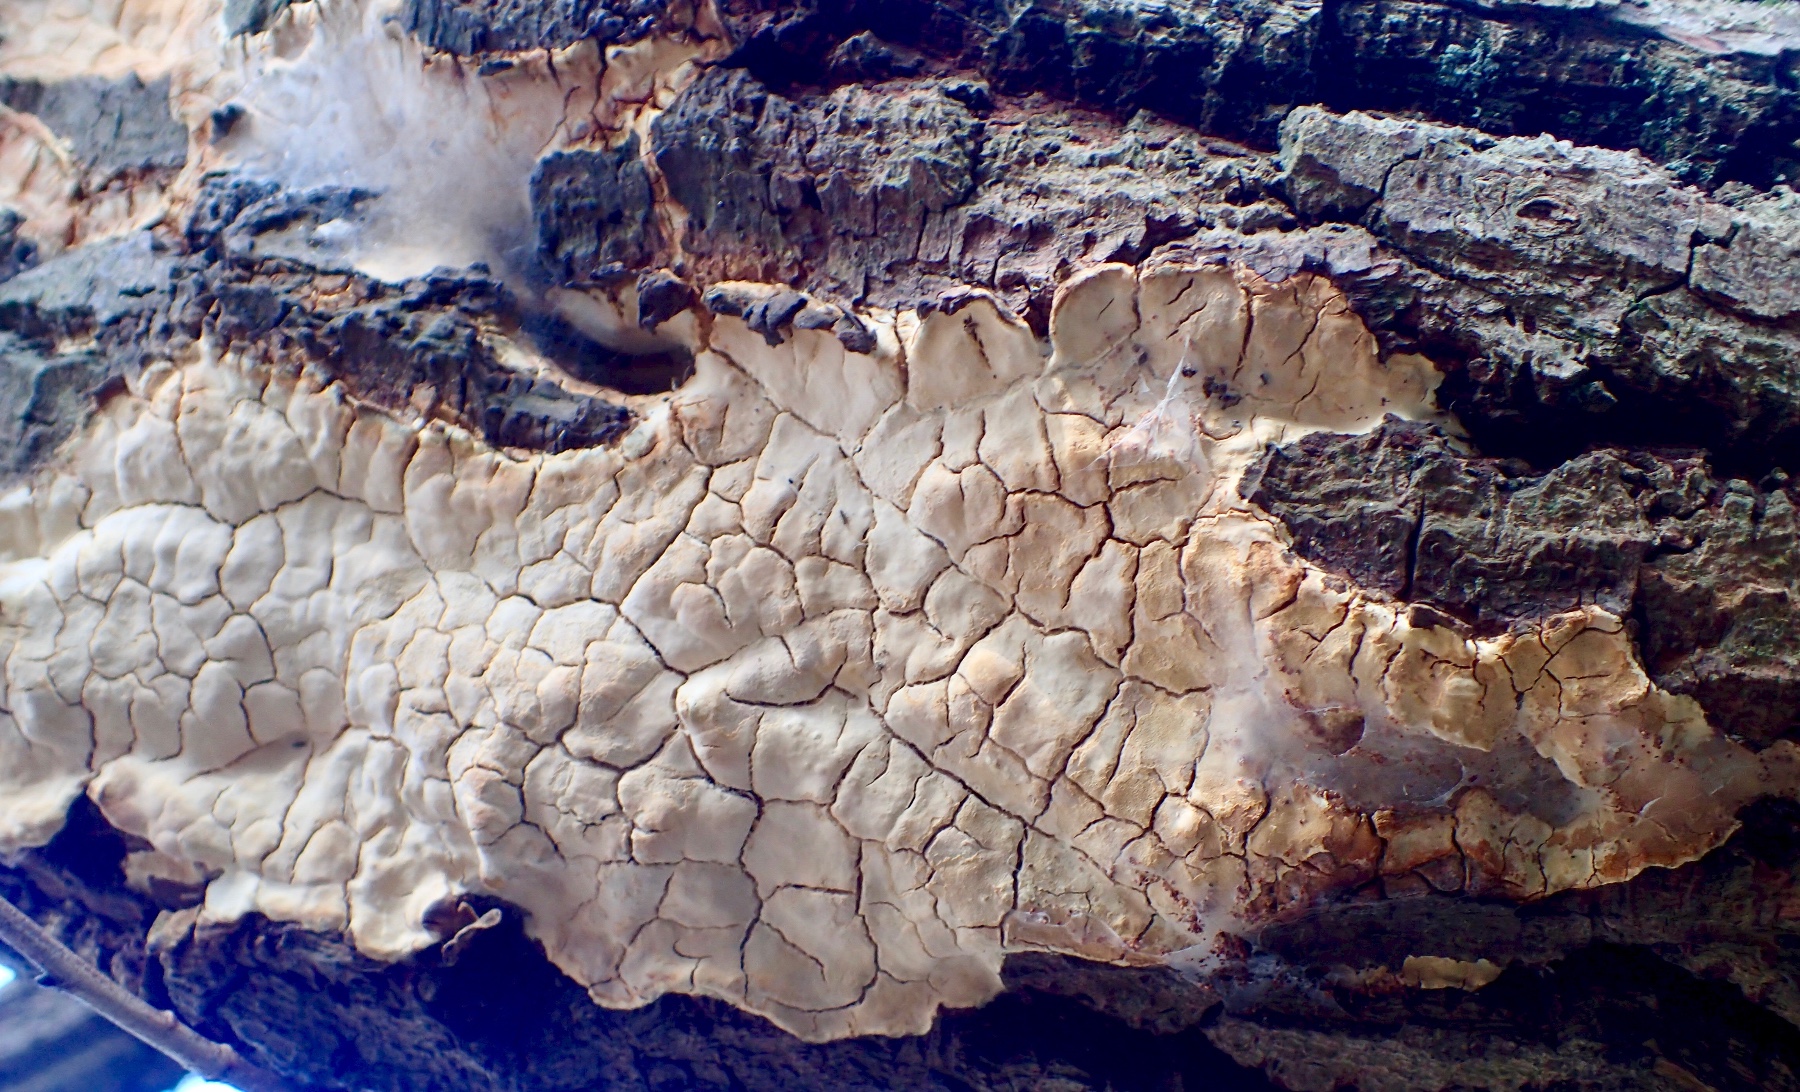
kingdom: Fungi
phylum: Basidiomycota
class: Agaricomycetes
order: Russulales
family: Peniophoraceae
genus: Scytinostroma
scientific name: Scytinostroma hemidichophyticum
